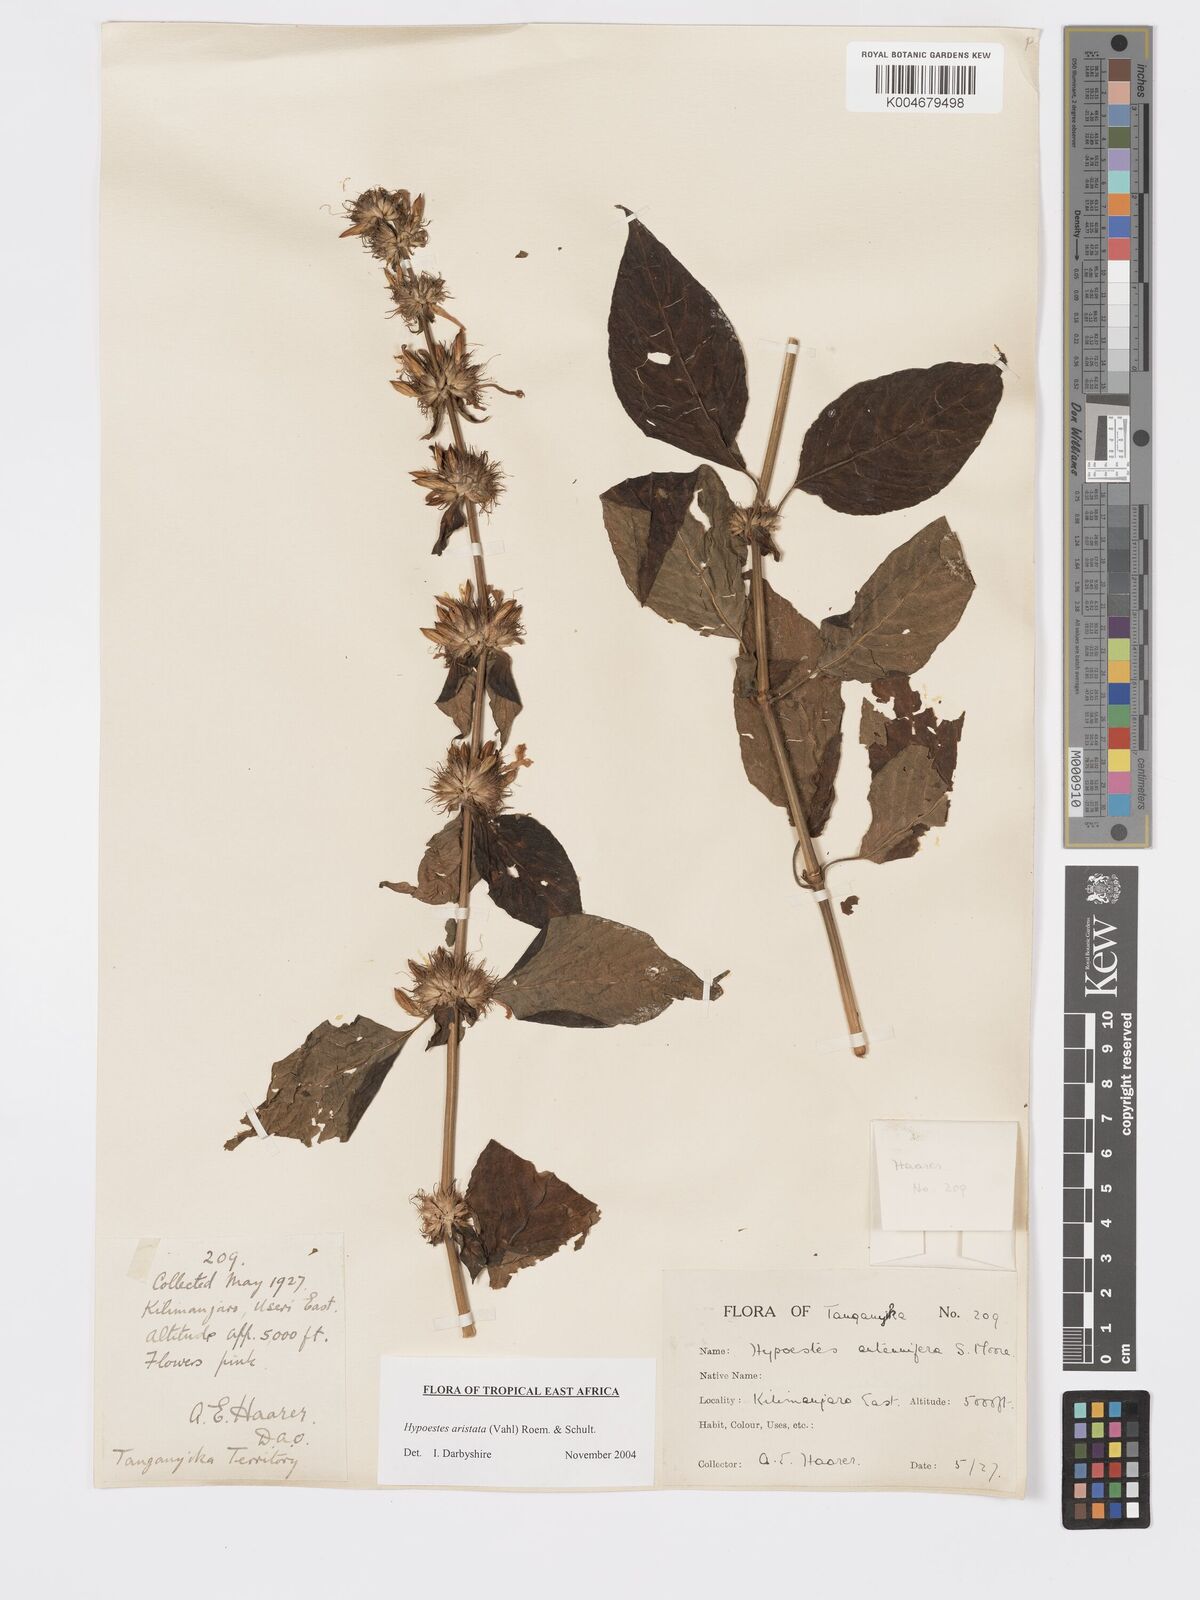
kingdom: Plantae
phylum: Tracheophyta
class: Magnoliopsida
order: Lamiales
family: Acanthaceae
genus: Hypoestes
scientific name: Hypoestes aristata
